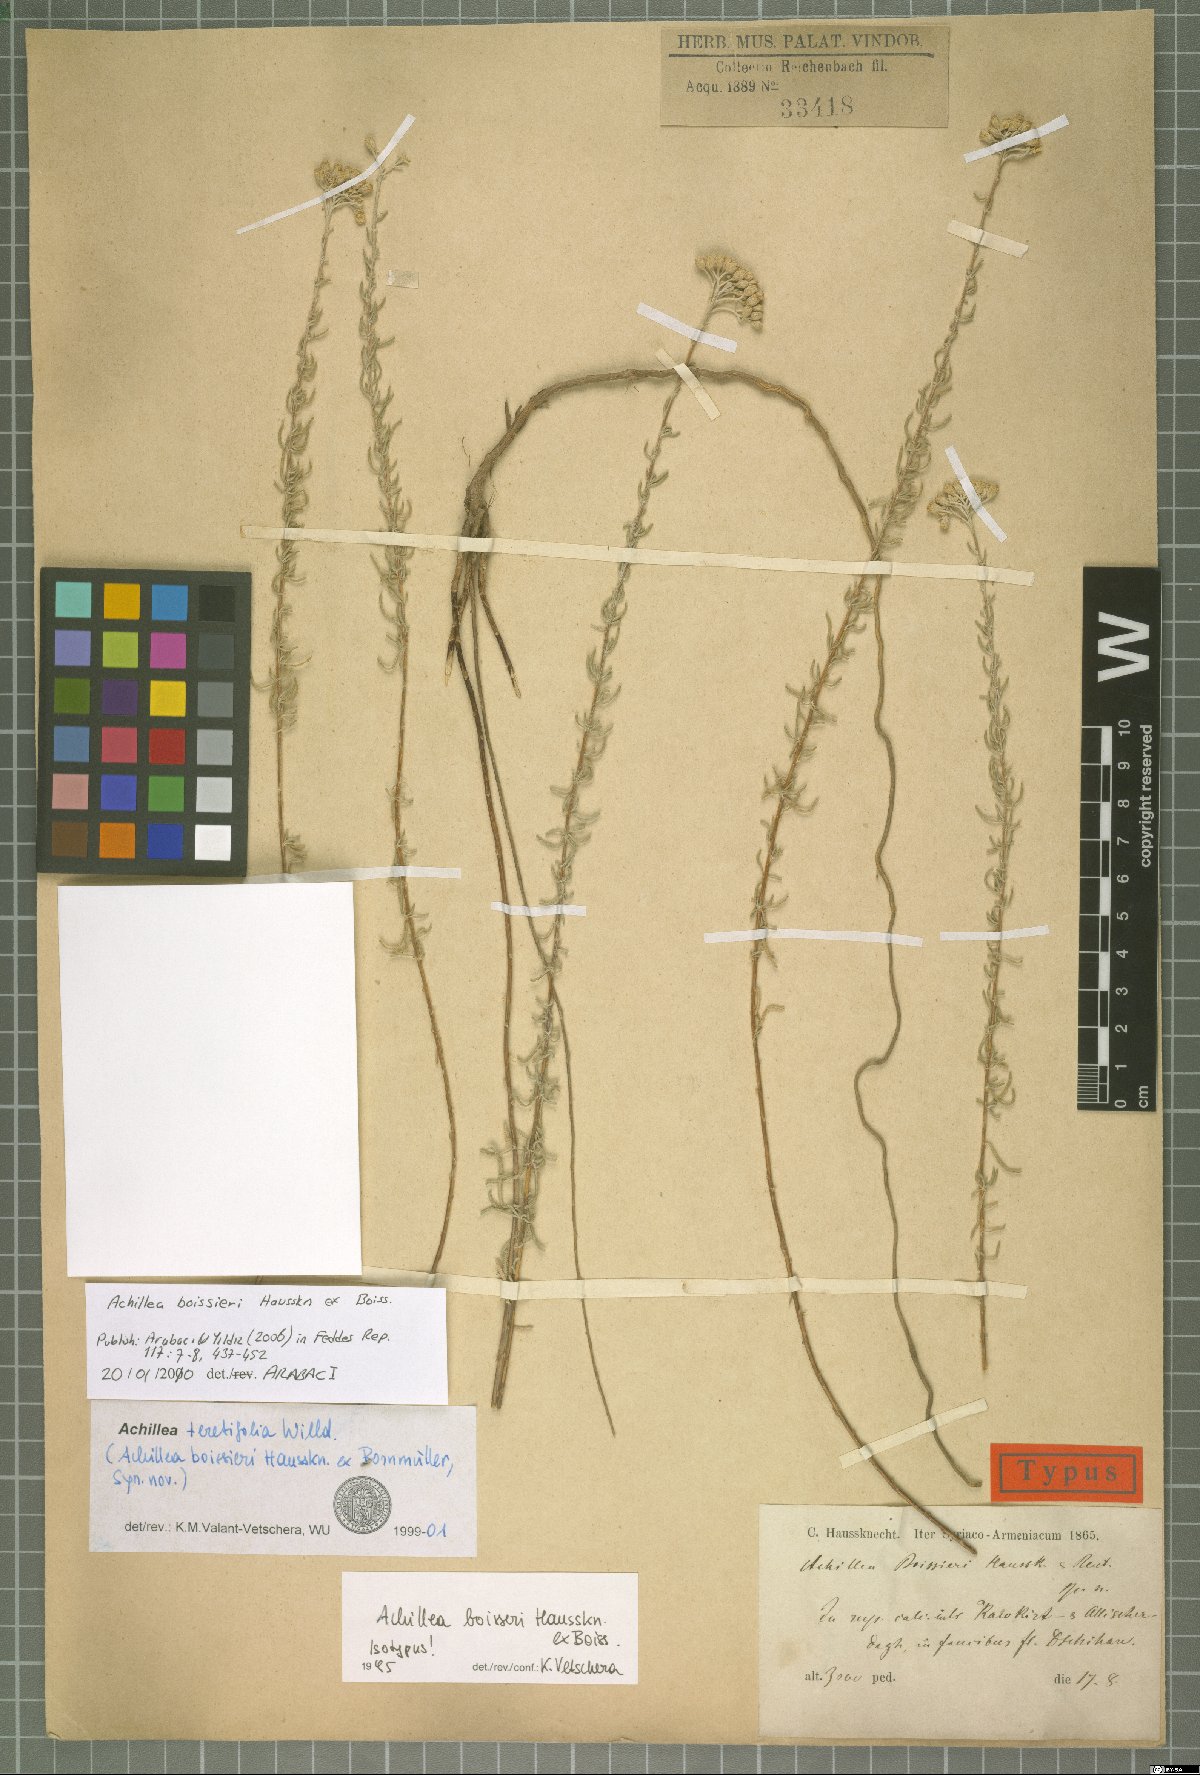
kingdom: Plantae
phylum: Tracheophyta
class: Magnoliopsida
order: Asterales
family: Asteraceae
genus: Achillea
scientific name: Achillea boissieri
